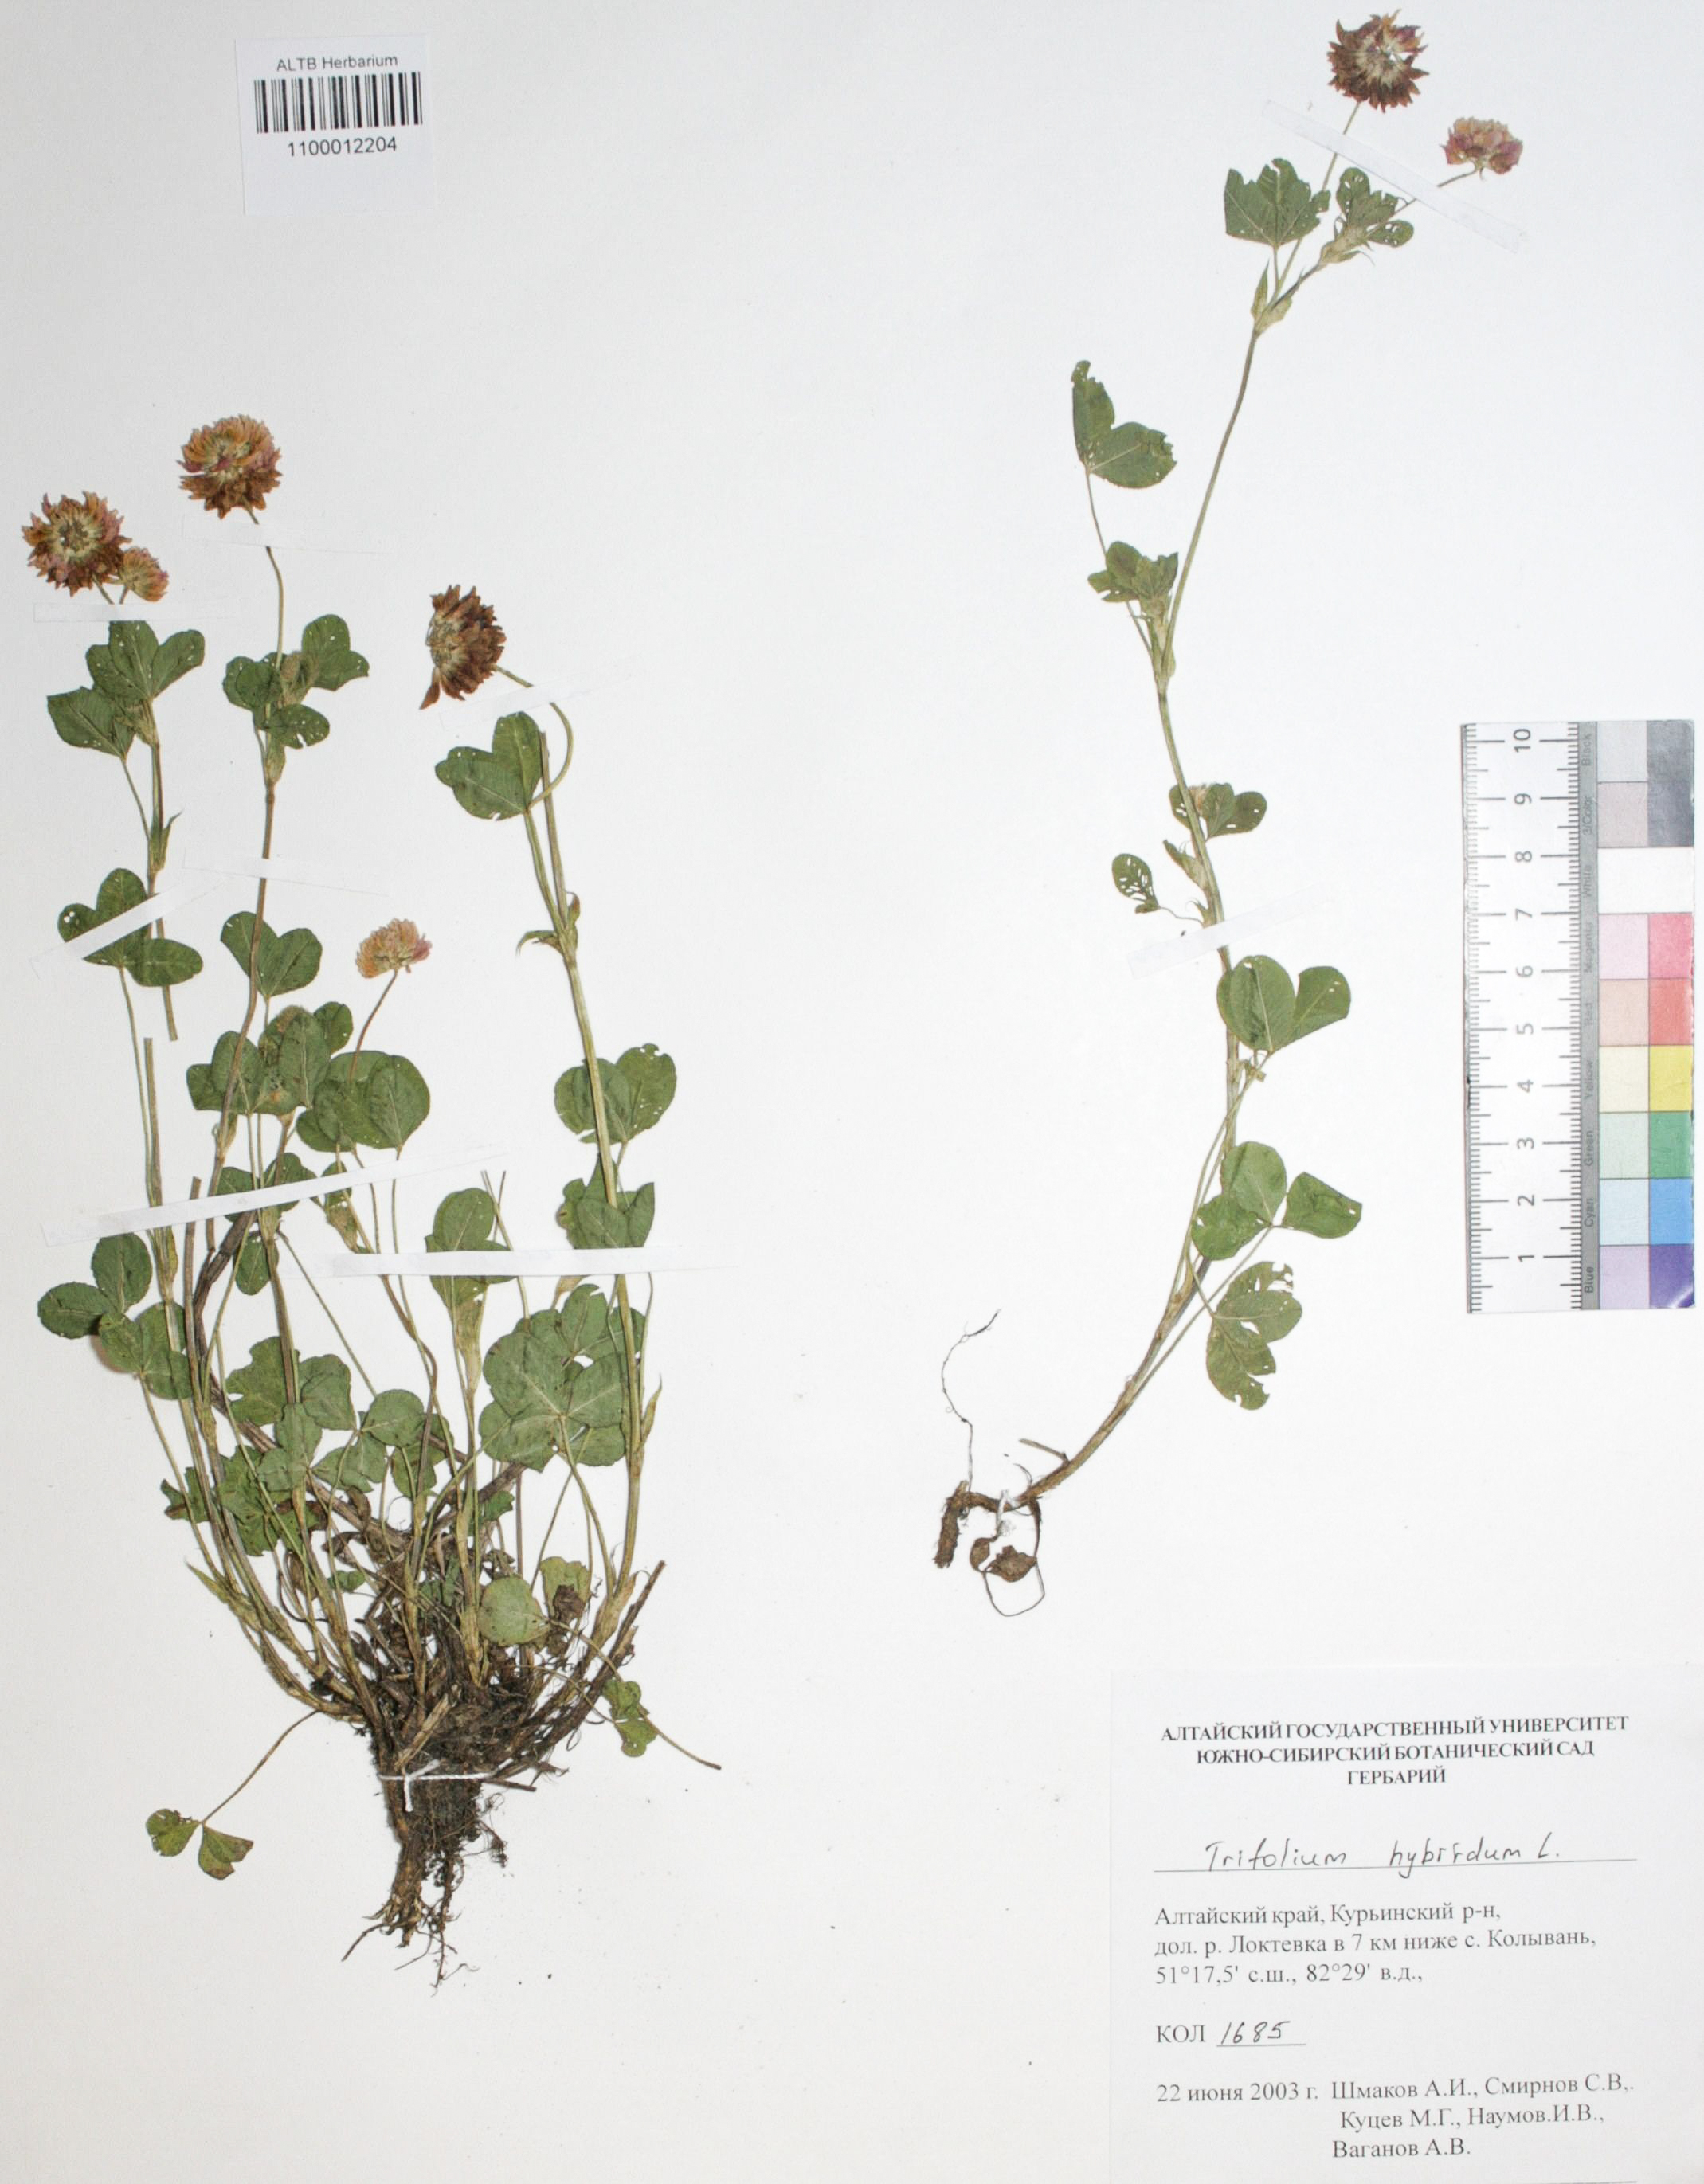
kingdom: Plantae
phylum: Tracheophyta
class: Magnoliopsida
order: Fabales
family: Fabaceae
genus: Trifolium
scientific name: Trifolium hybridum
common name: Alsike clover
